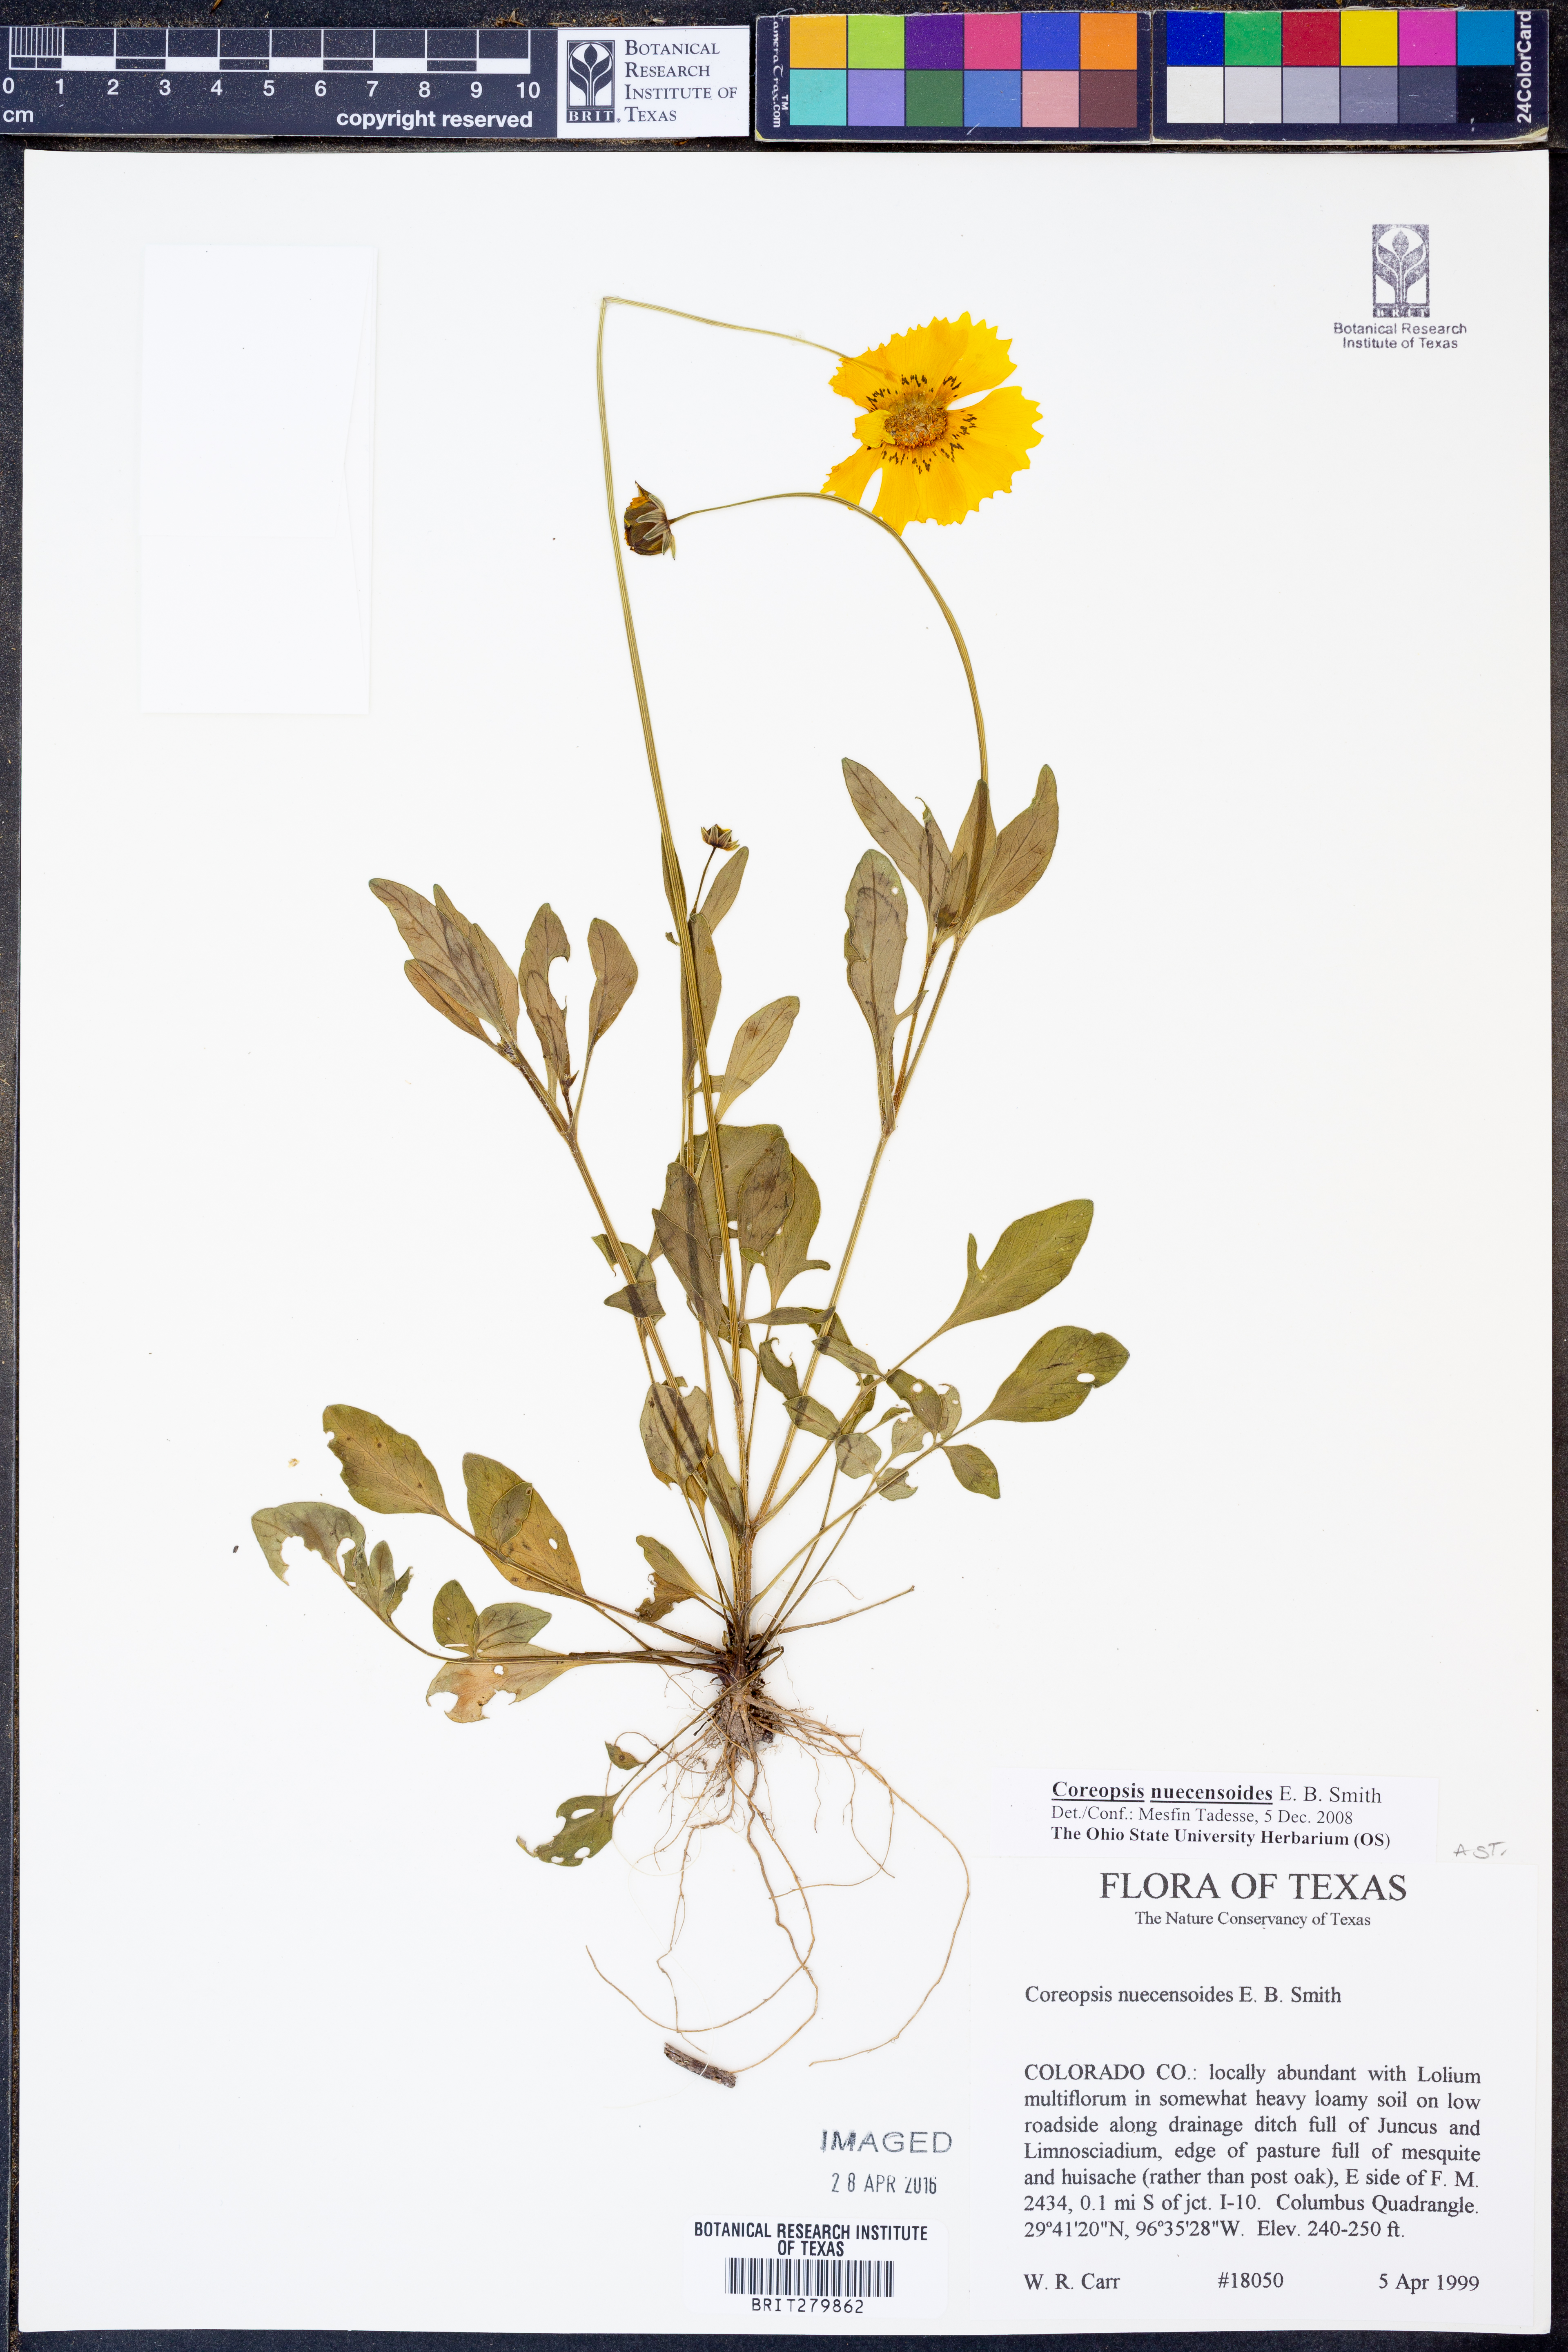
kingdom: Plantae
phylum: Tracheophyta
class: Magnoliopsida
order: Asterales
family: Asteraceae
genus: Coreopsis
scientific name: Coreopsis nuecensis
